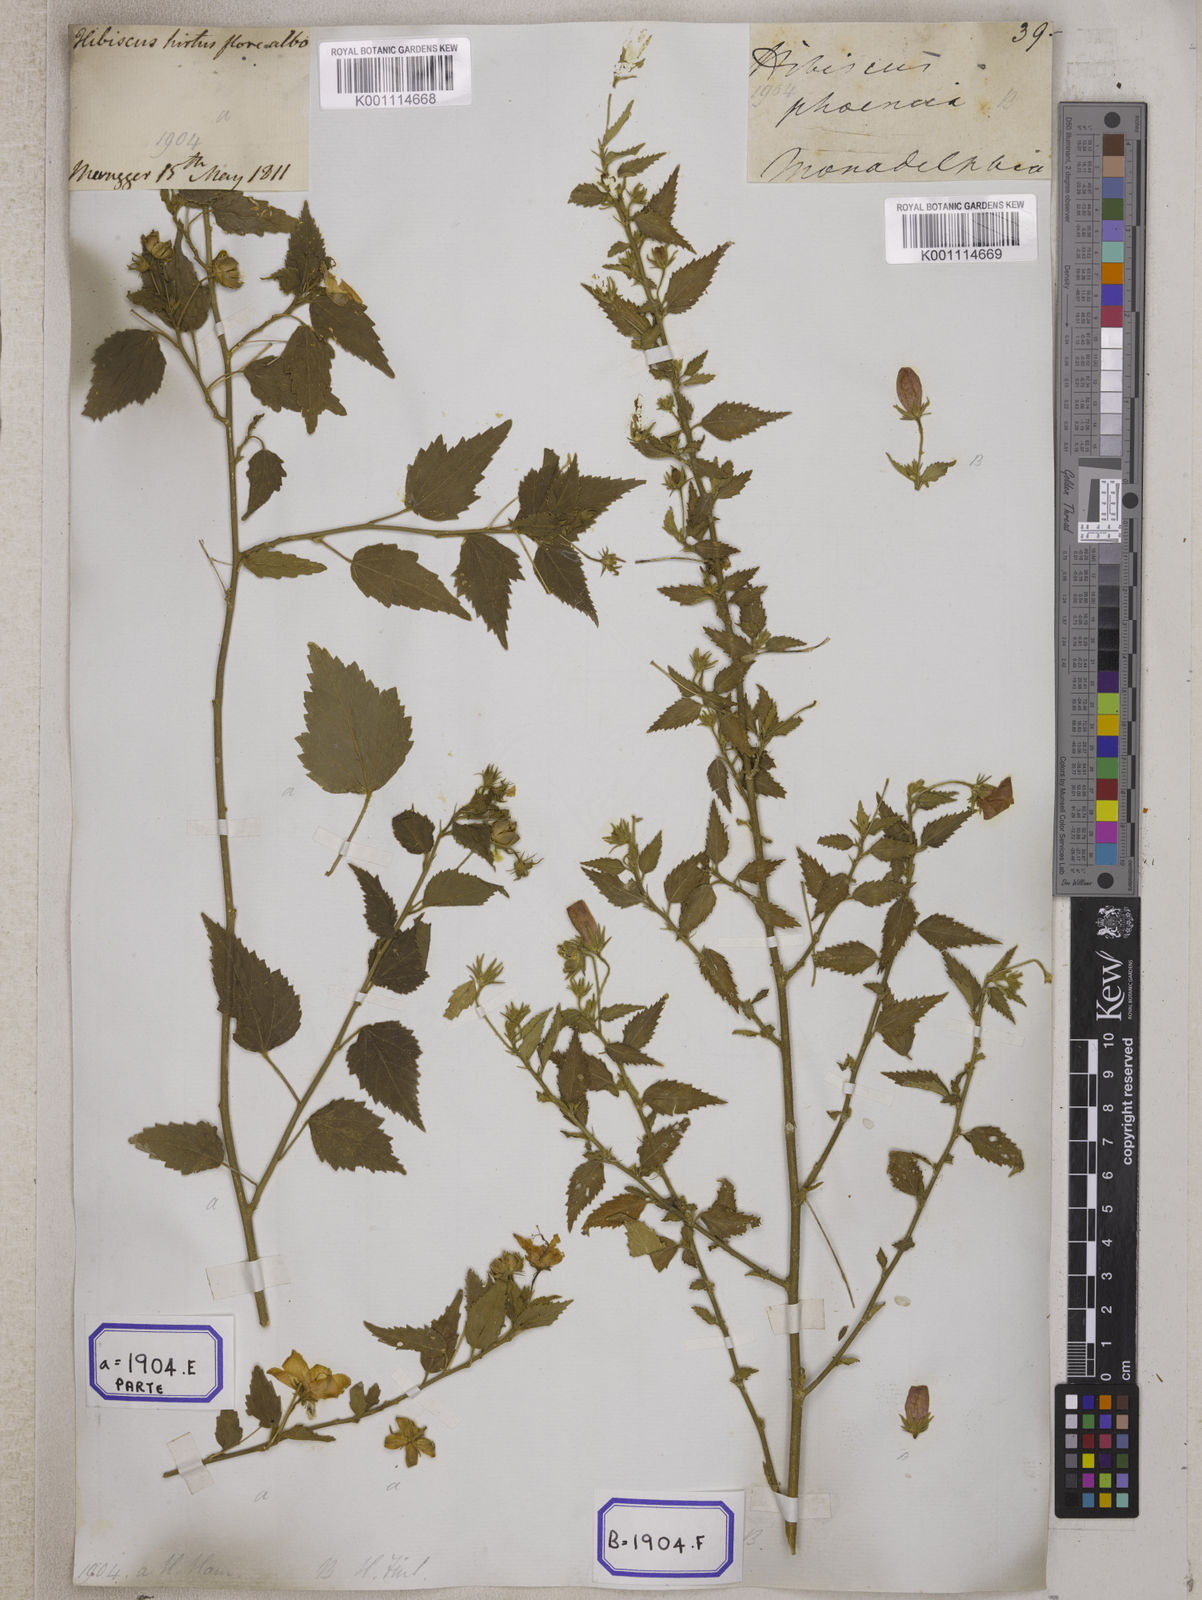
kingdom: Plantae
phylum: Tracheophyta
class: Magnoliopsida
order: Malvales
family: Malvaceae
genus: Hibiscus
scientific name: Hibiscus phoeniceus
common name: Brazilian rosemallow
